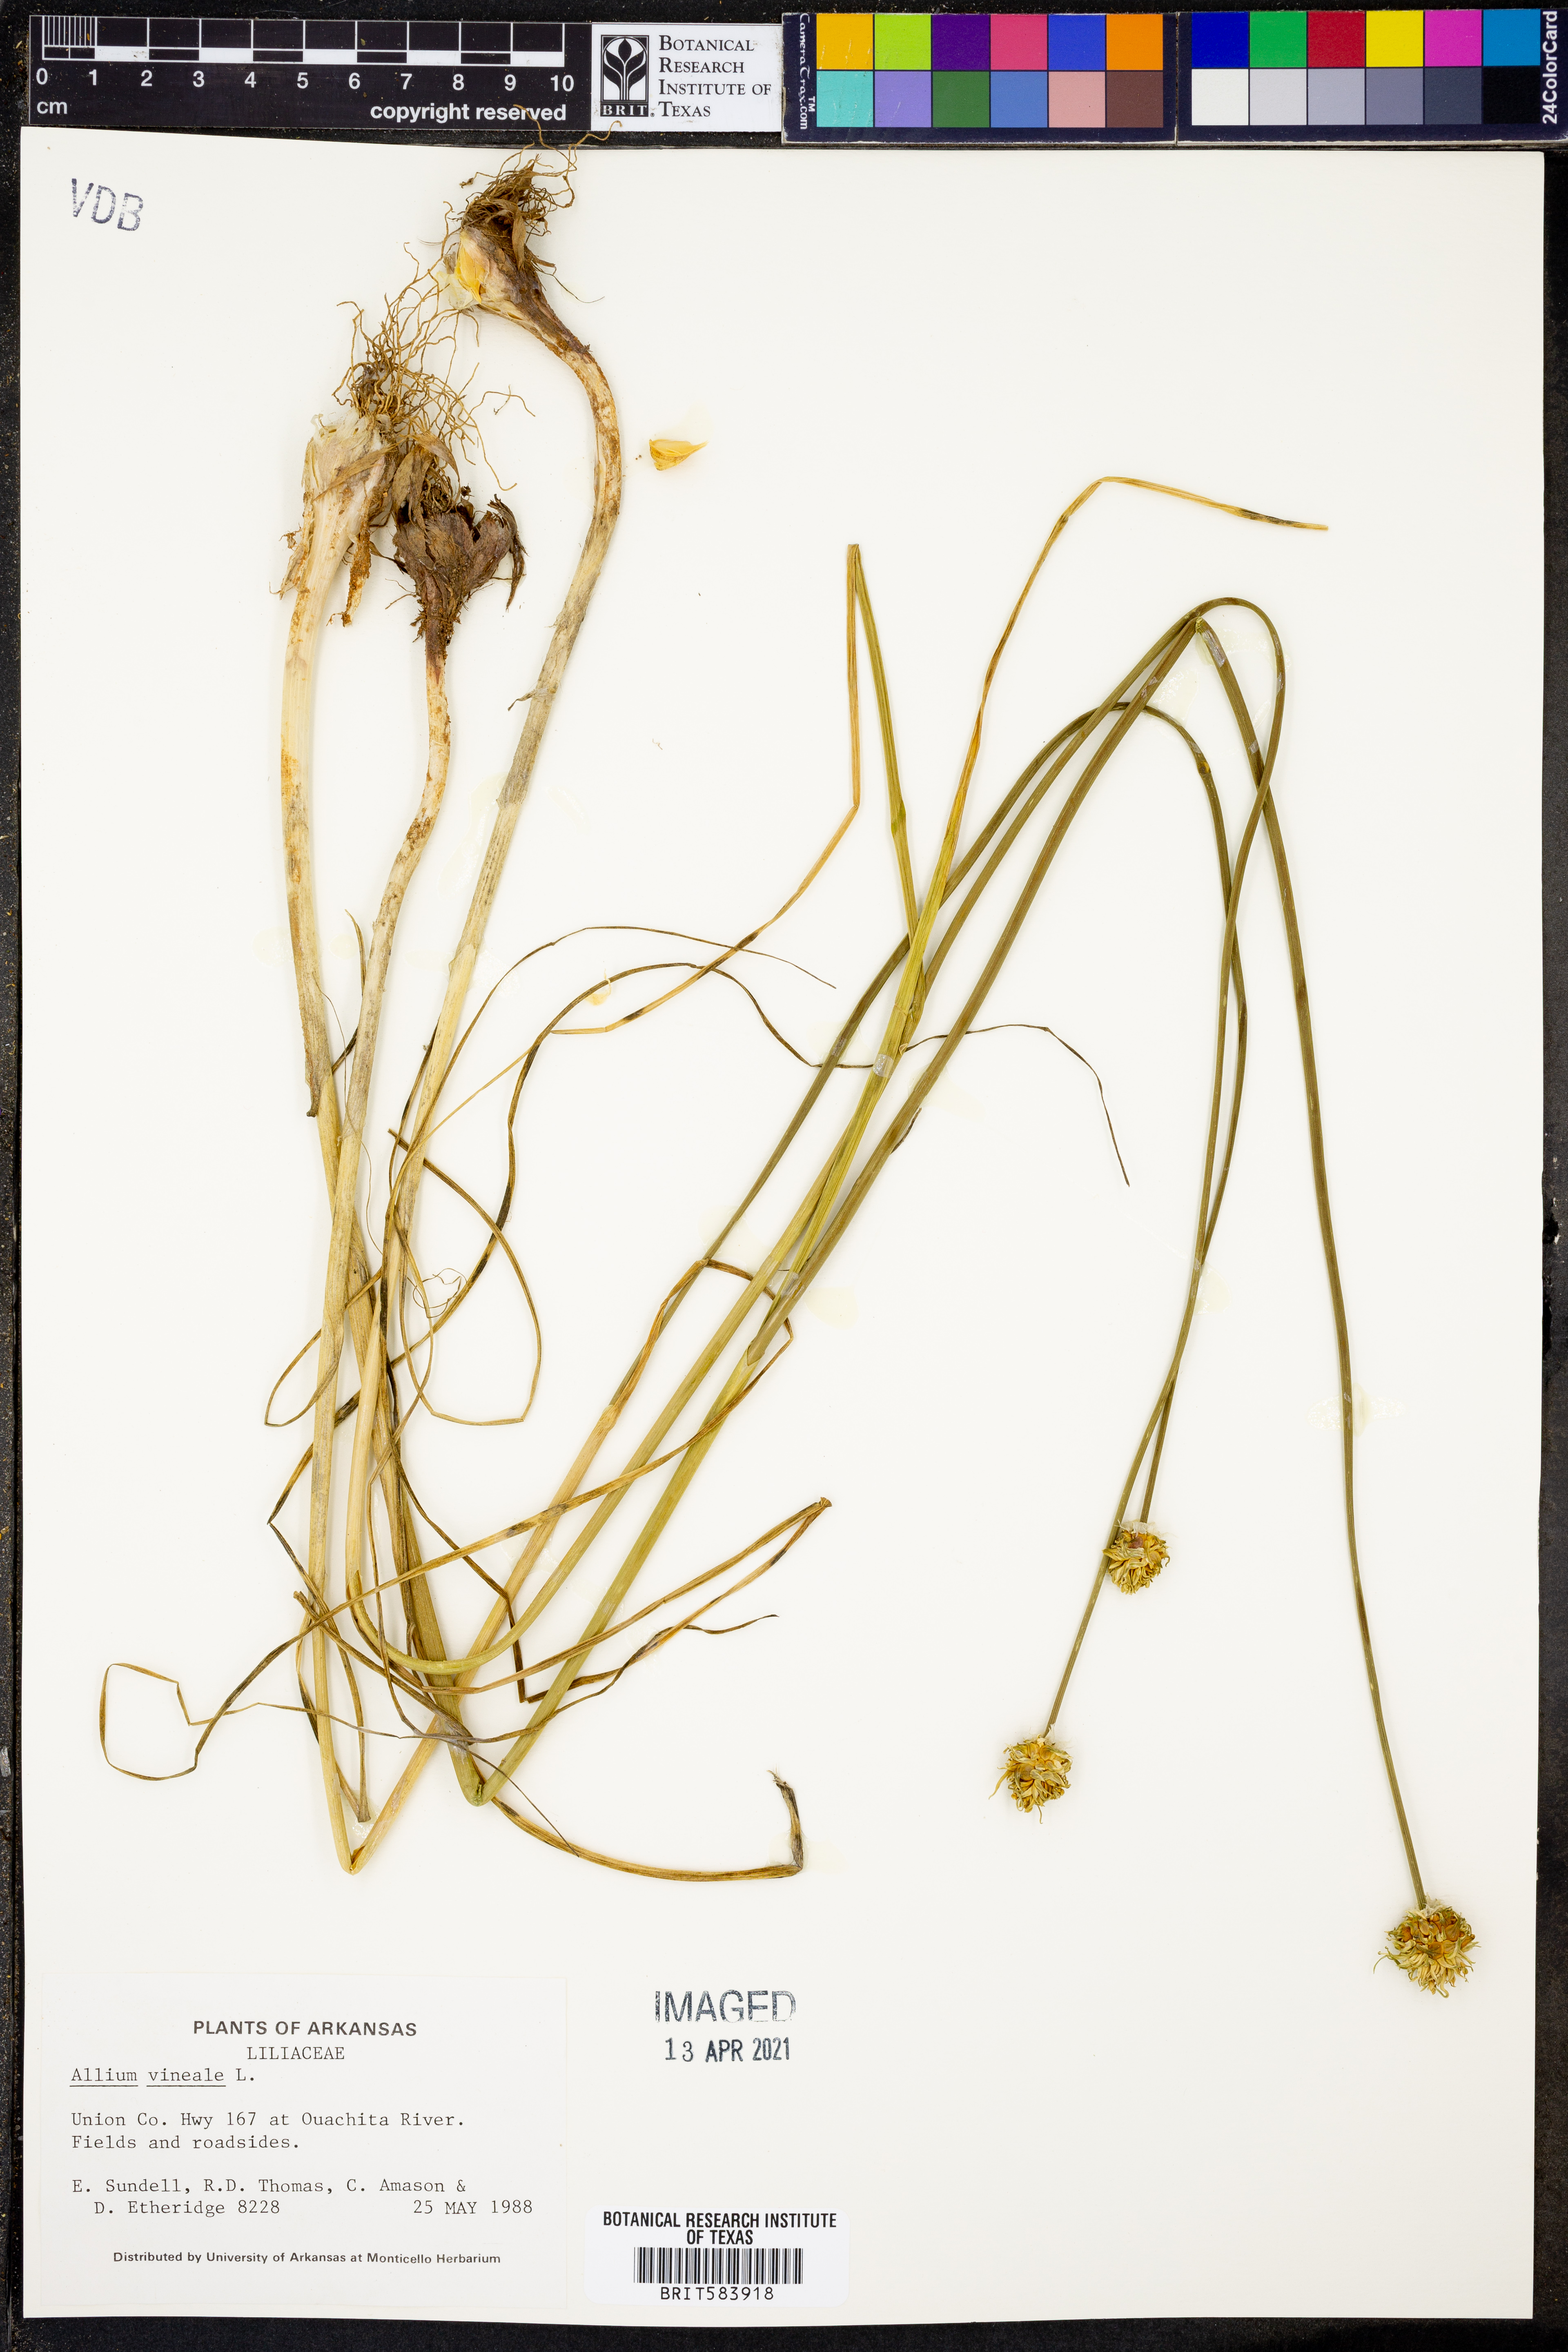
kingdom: Plantae
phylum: Tracheophyta
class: Liliopsida
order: Asparagales
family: Amaryllidaceae
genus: Allium
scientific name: Allium vineale
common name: Crow garlic
